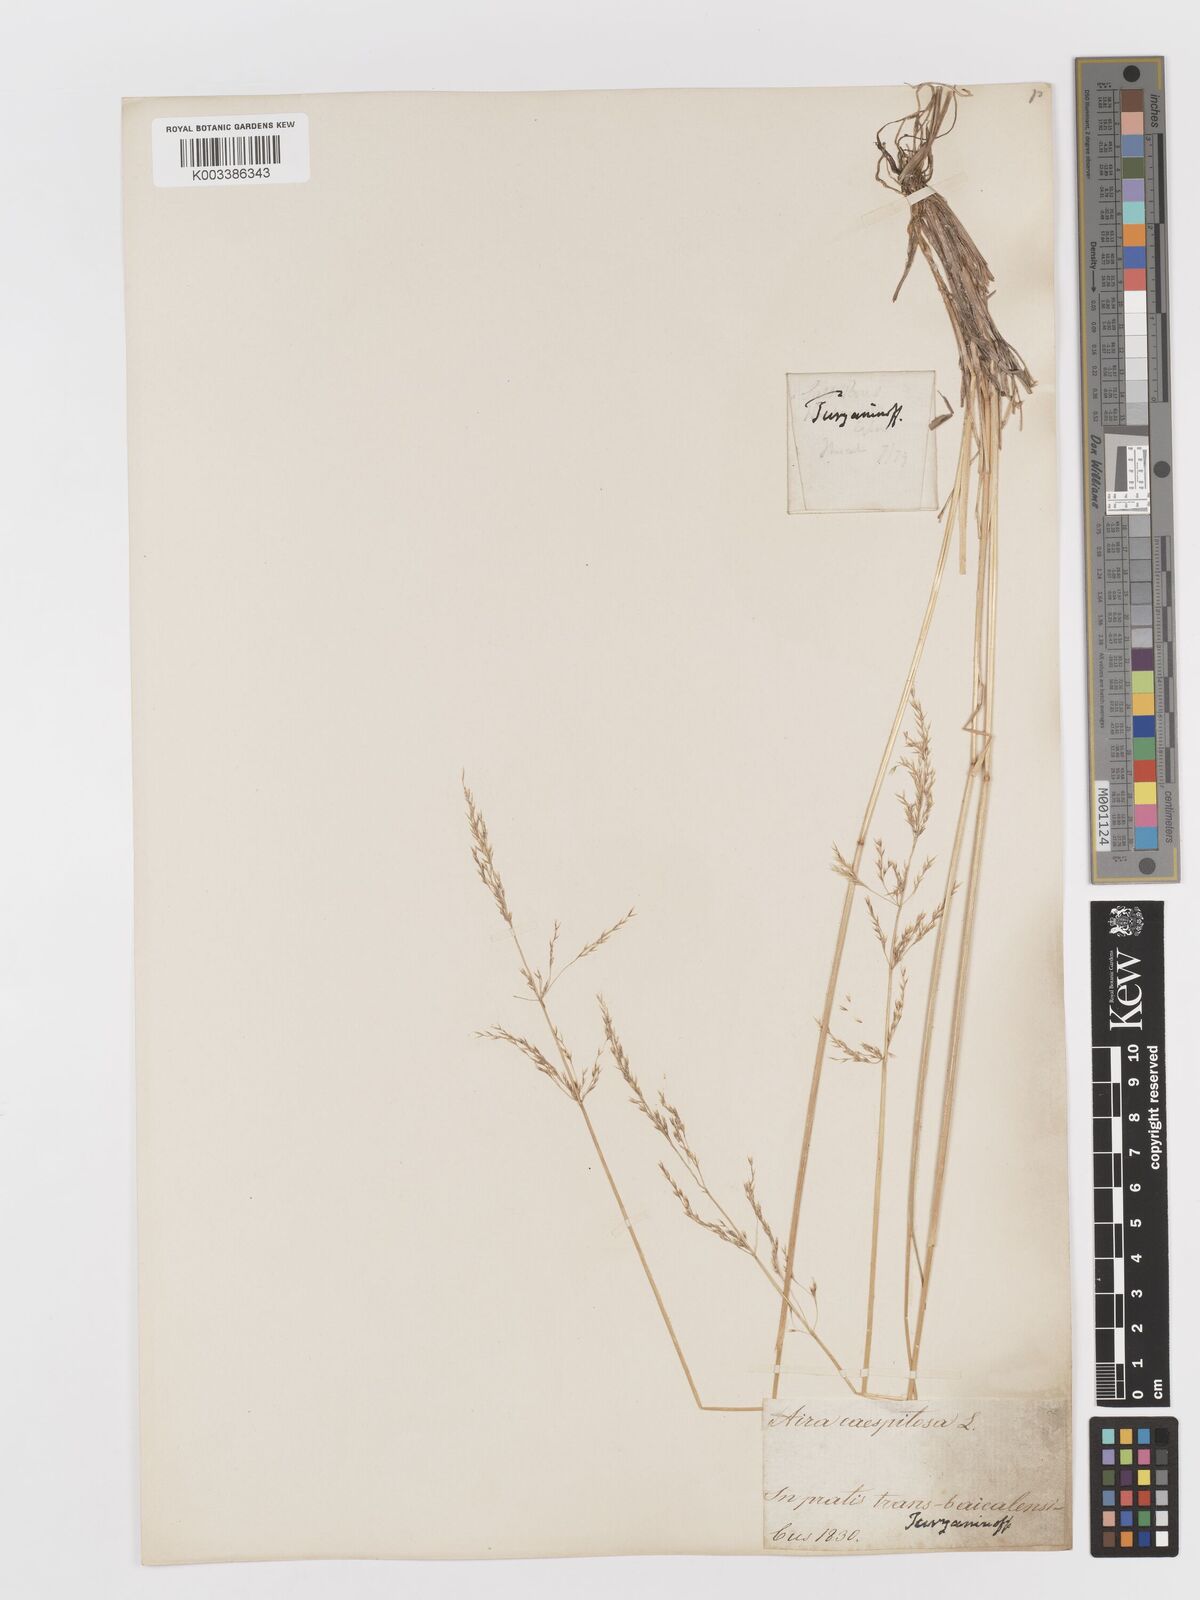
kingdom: Plantae
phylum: Tracheophyta
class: Liliopsida
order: Poales
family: Poaceae
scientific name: Poaceae
